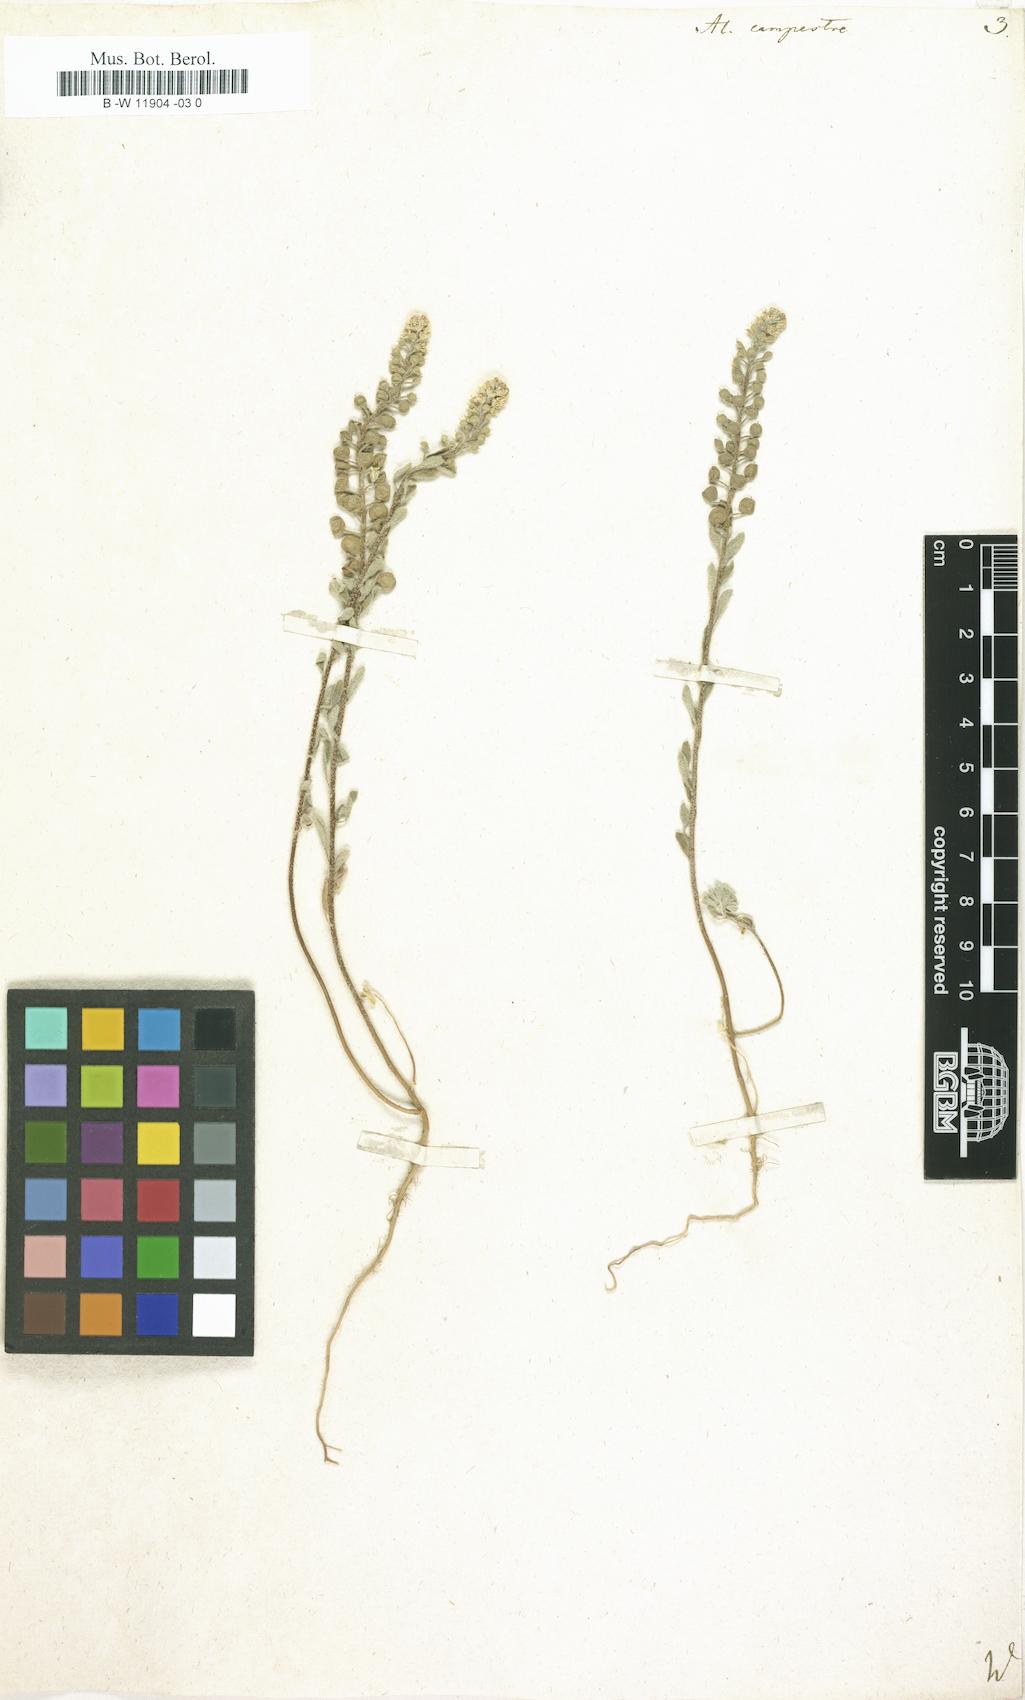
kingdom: Plantae
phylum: Tracheophyta
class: Magnoliopsida
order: Brassicales
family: Brassicaceae
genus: Alyssum
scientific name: Alyssum alyssoides
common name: Small alison
